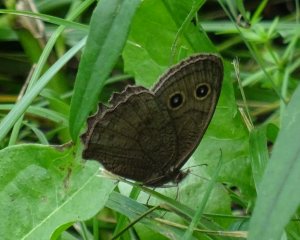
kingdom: Animalia
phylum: Arthropoda
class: Insecta
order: Lepidoptera
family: Nymphalidae
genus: Cercyonis
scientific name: Cercyonis pegala
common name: Common Wood-Nymph
